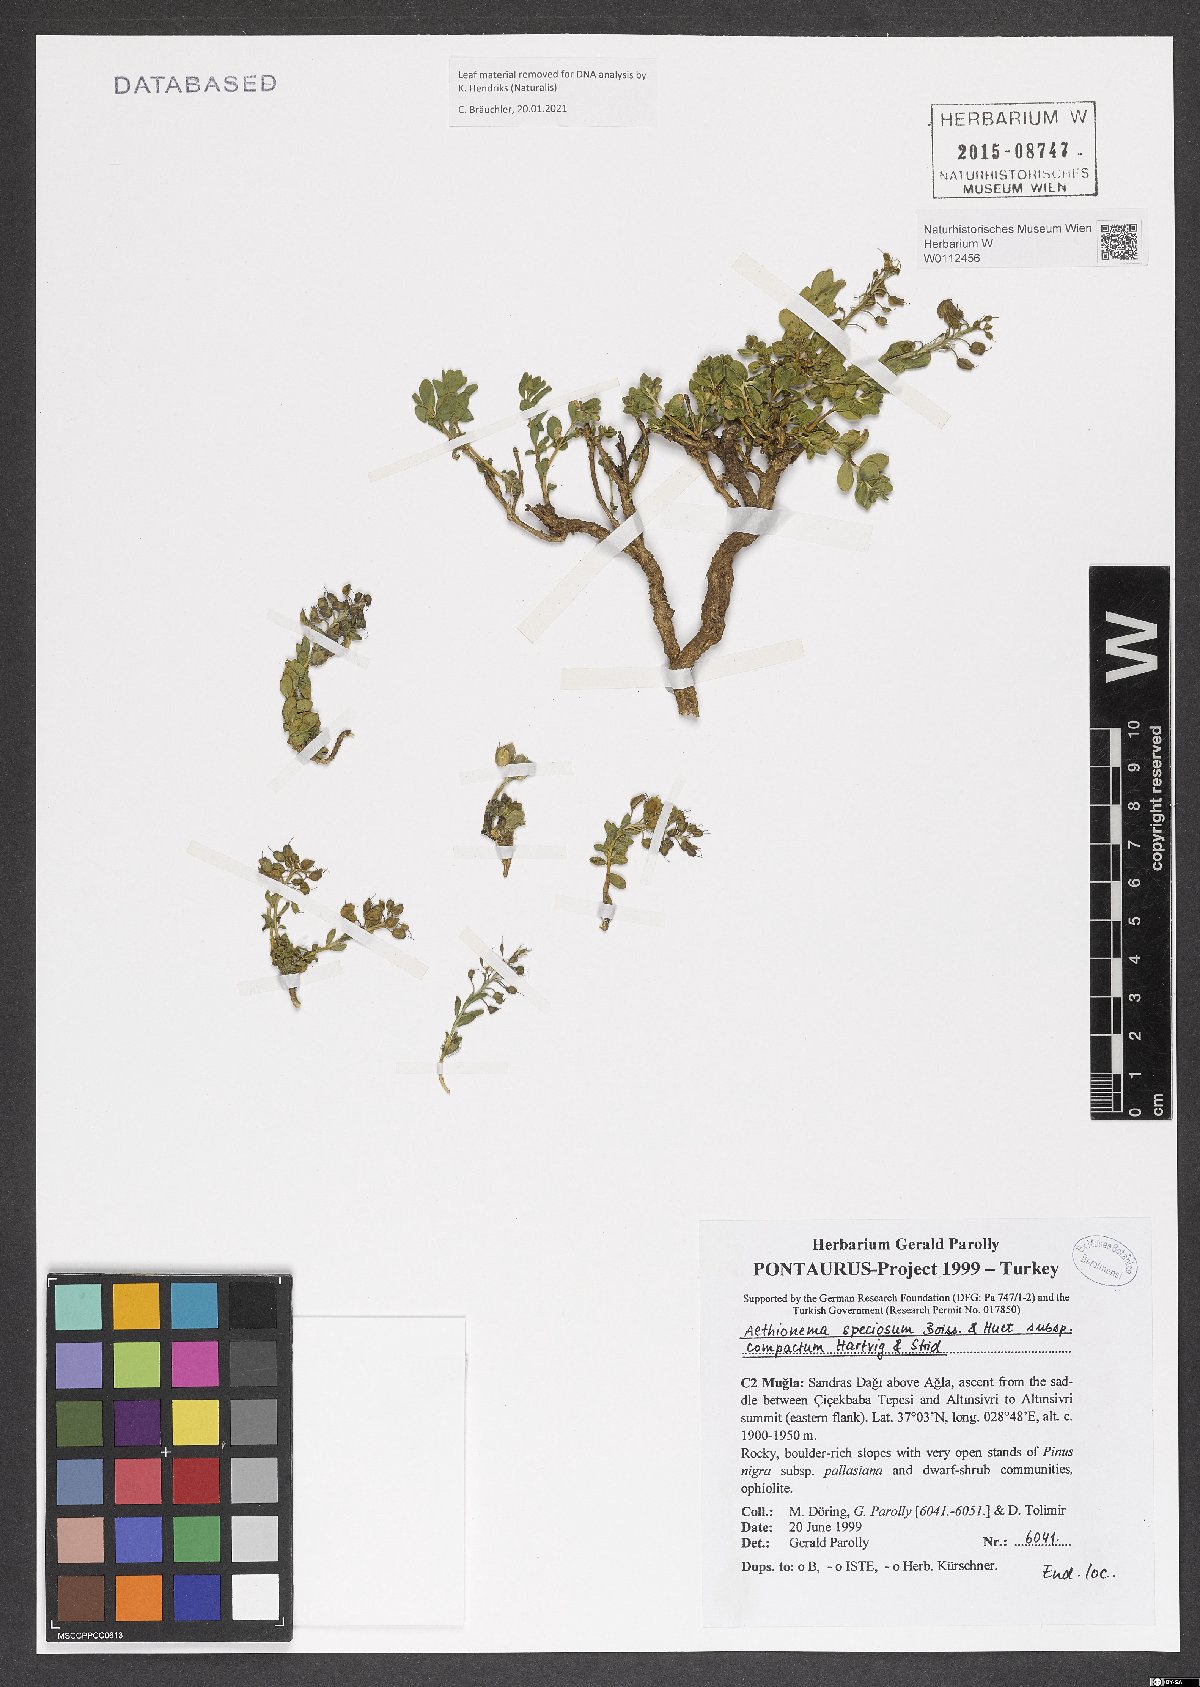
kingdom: Plantae
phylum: Tracheophyta
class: Magnoliopsida
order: Brassicales
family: Brassicaceae
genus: Aethionema
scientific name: Aethionema compactum
